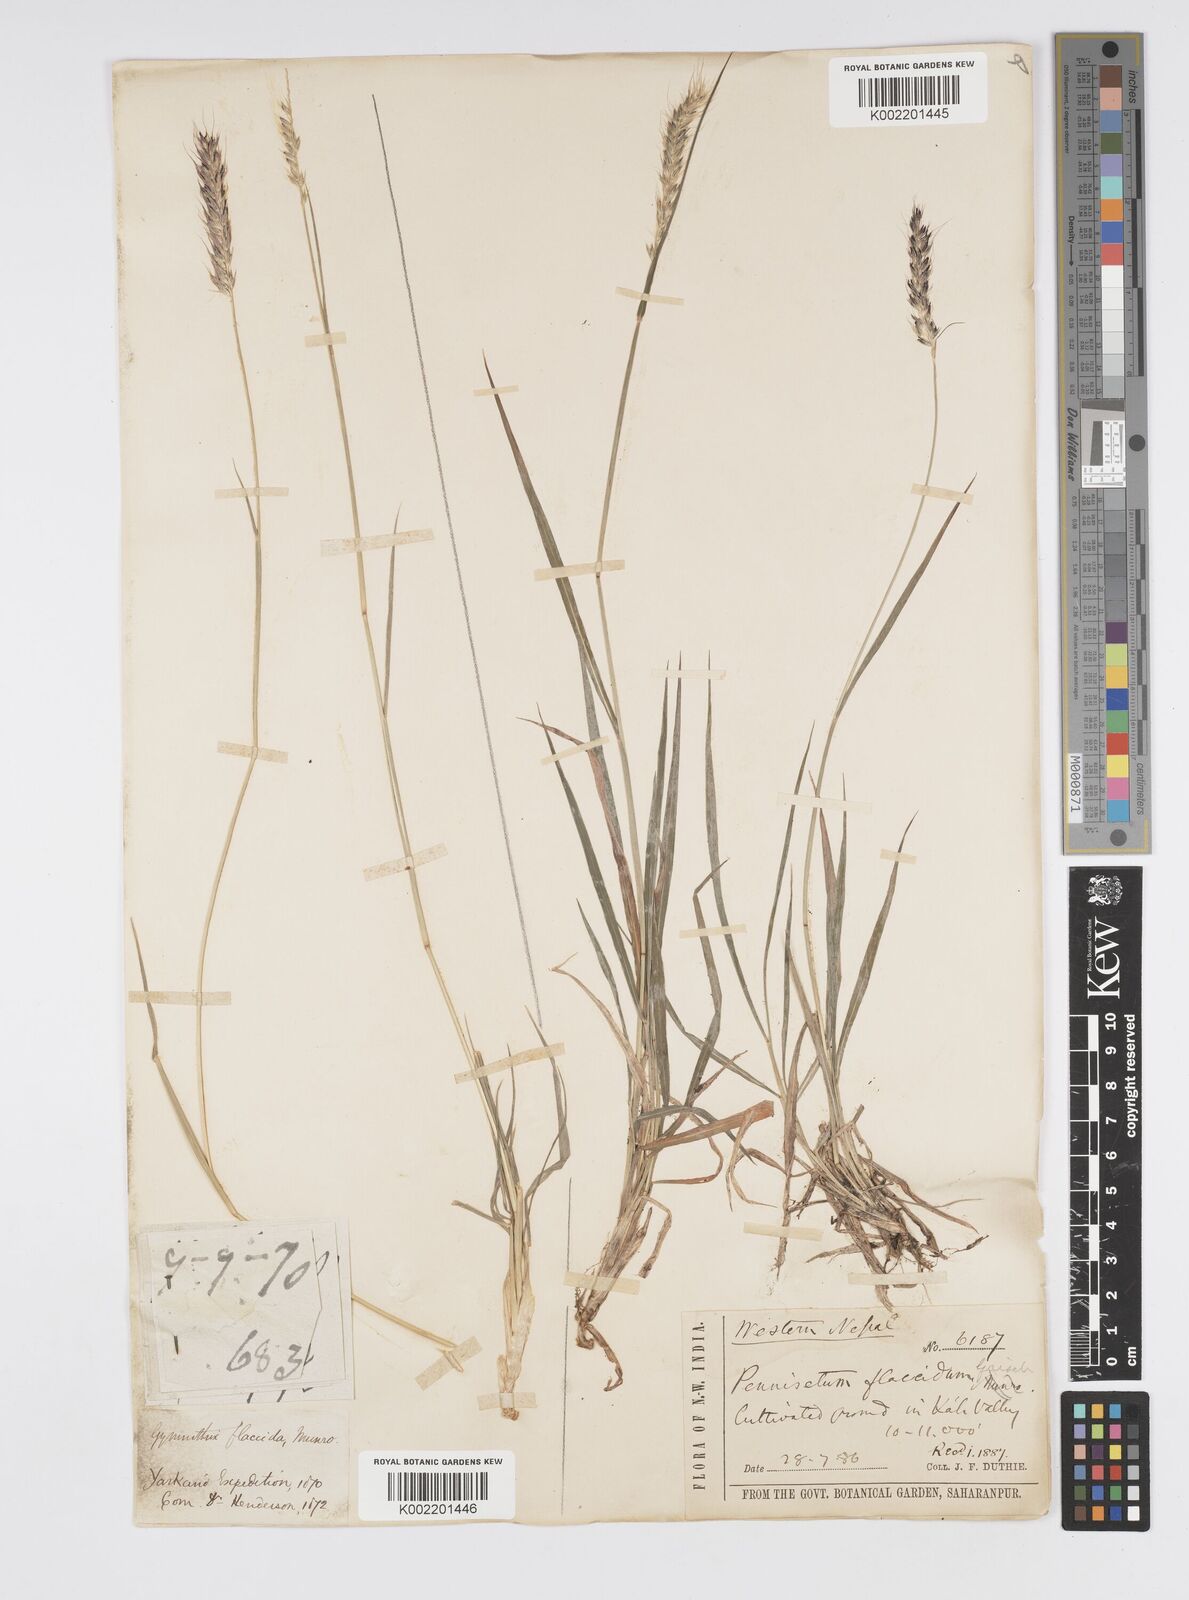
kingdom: Plantae
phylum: Tracheophyta
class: Liliopsida
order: Poales
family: Poaceae
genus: Cenchrus
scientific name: Cenchrus flaccidus
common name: Flaccid grass
